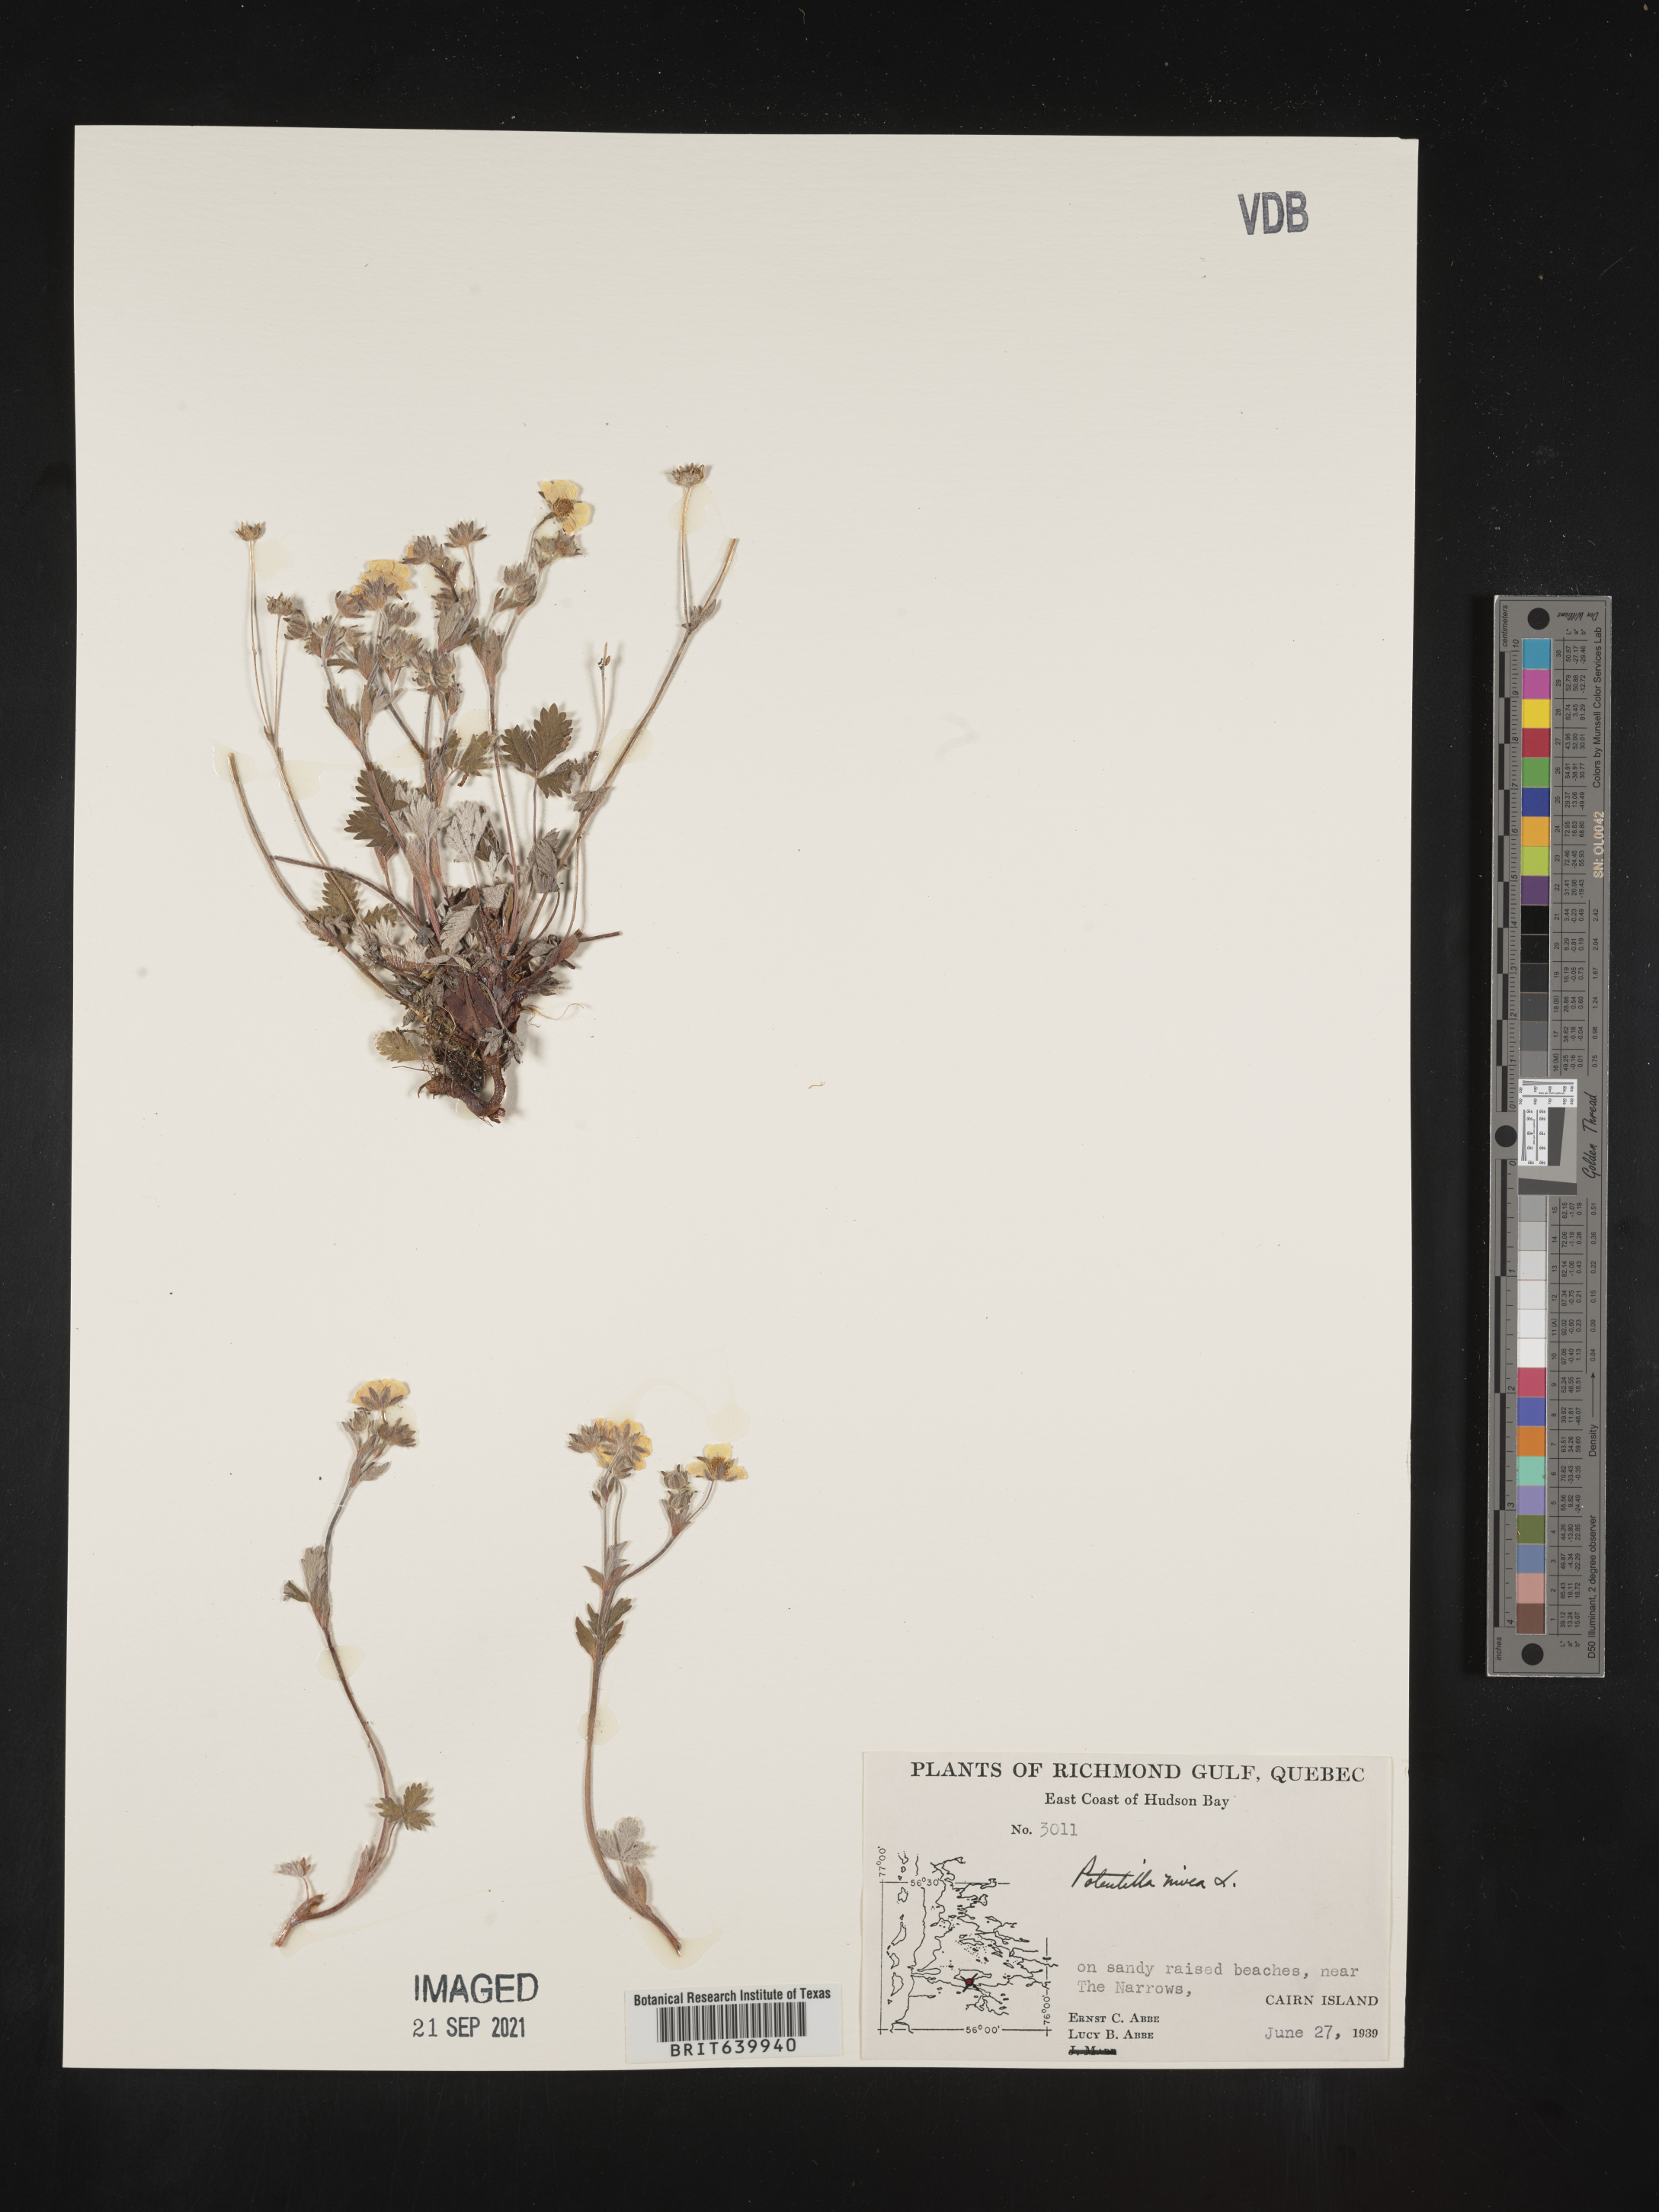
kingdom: Plantae
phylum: Tracheophyta
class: Magnoliopsida
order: Rosales
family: Rosaceae
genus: Potentilla
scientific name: Potentilla
